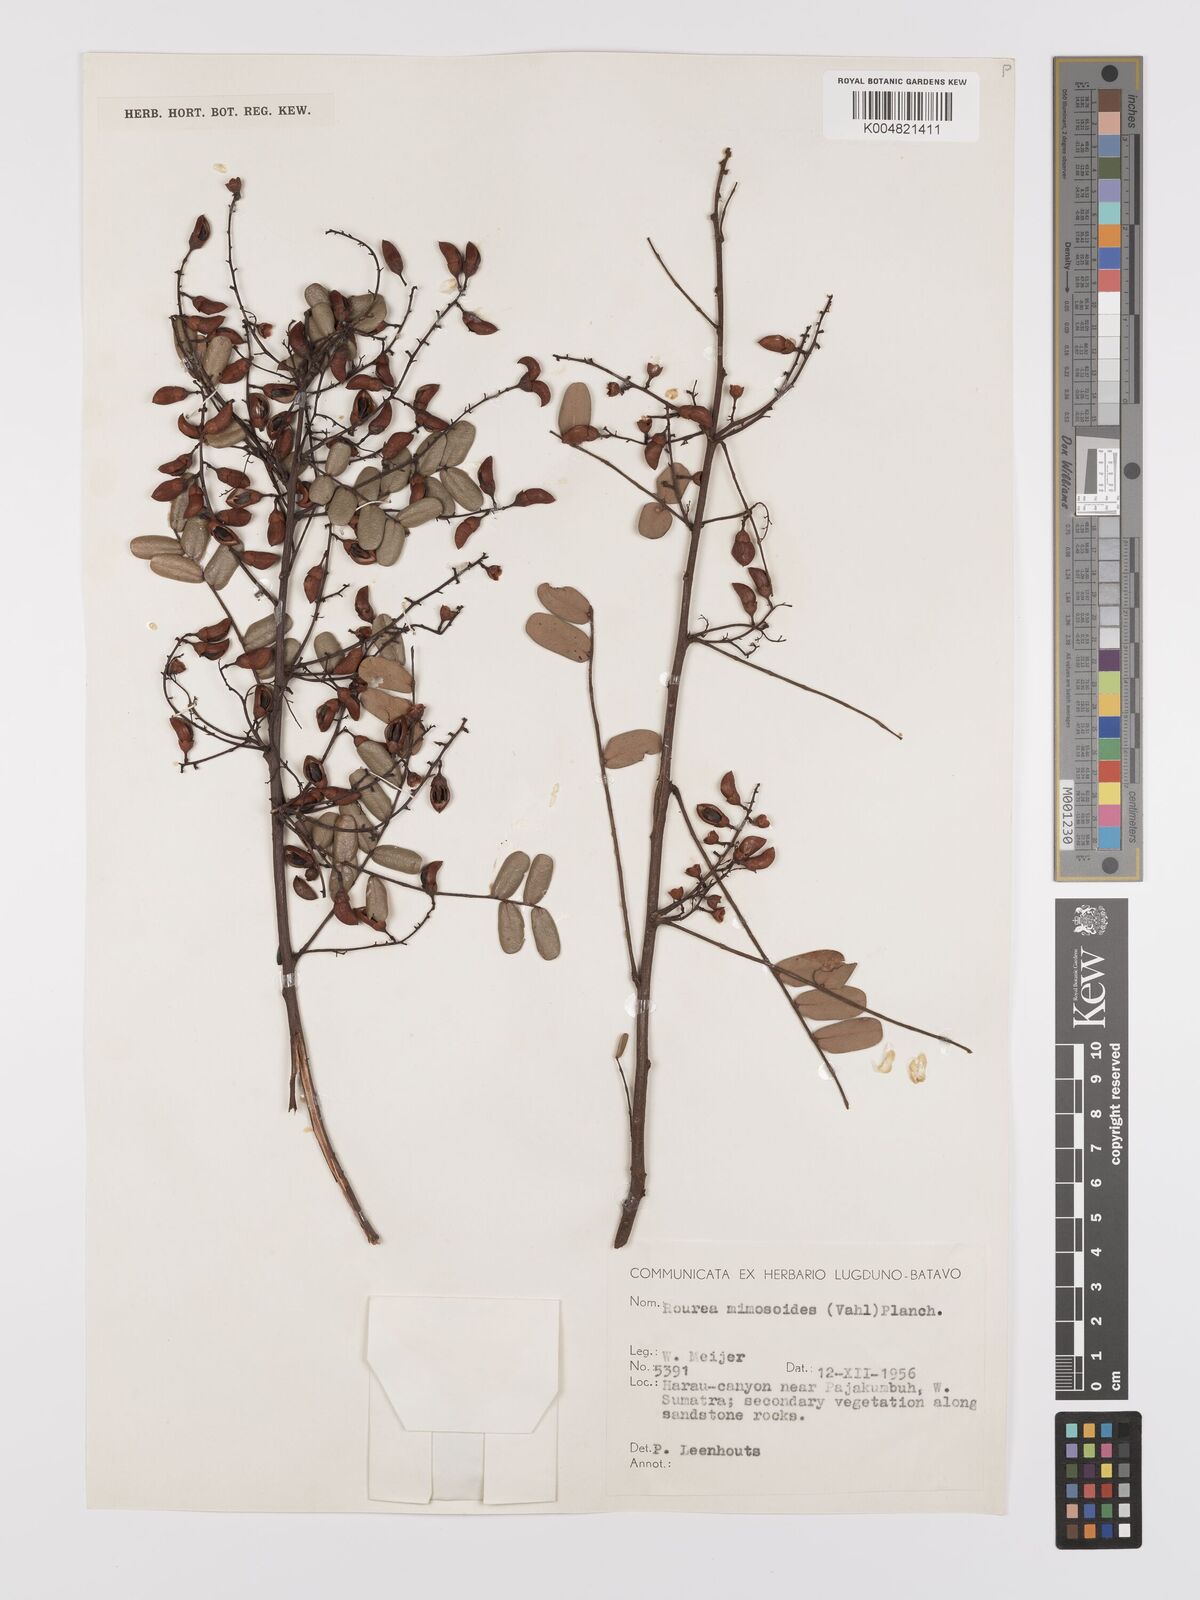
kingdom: Plantae
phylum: Tracheophyta
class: Magnoliopsida
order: Oxalidales
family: Connaraceae
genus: Rourea
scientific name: Rourea mimosoides
